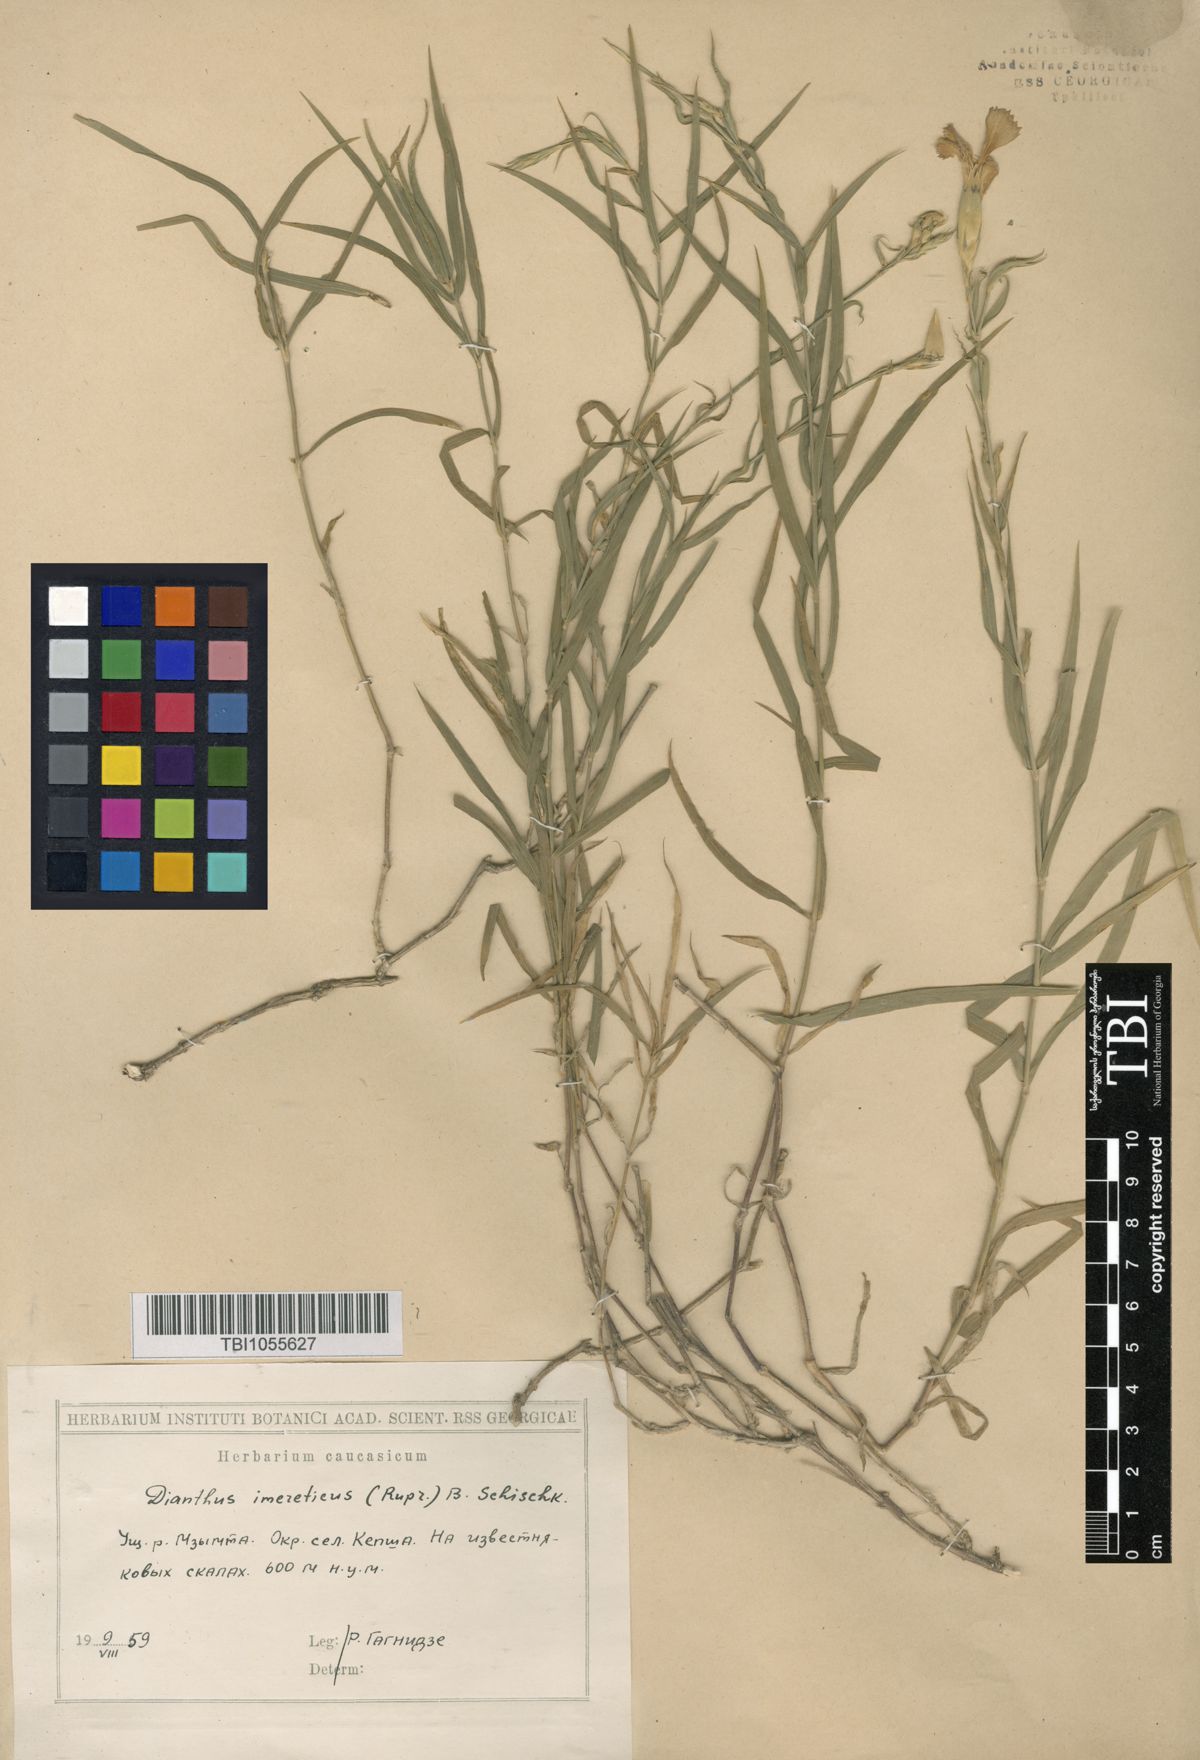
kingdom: Plantae
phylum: Tracheophyta
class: Magnoliopsida
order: Caryophyllales
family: Caryophyllaceae
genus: Dianthus
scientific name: Dianthus imereticus
